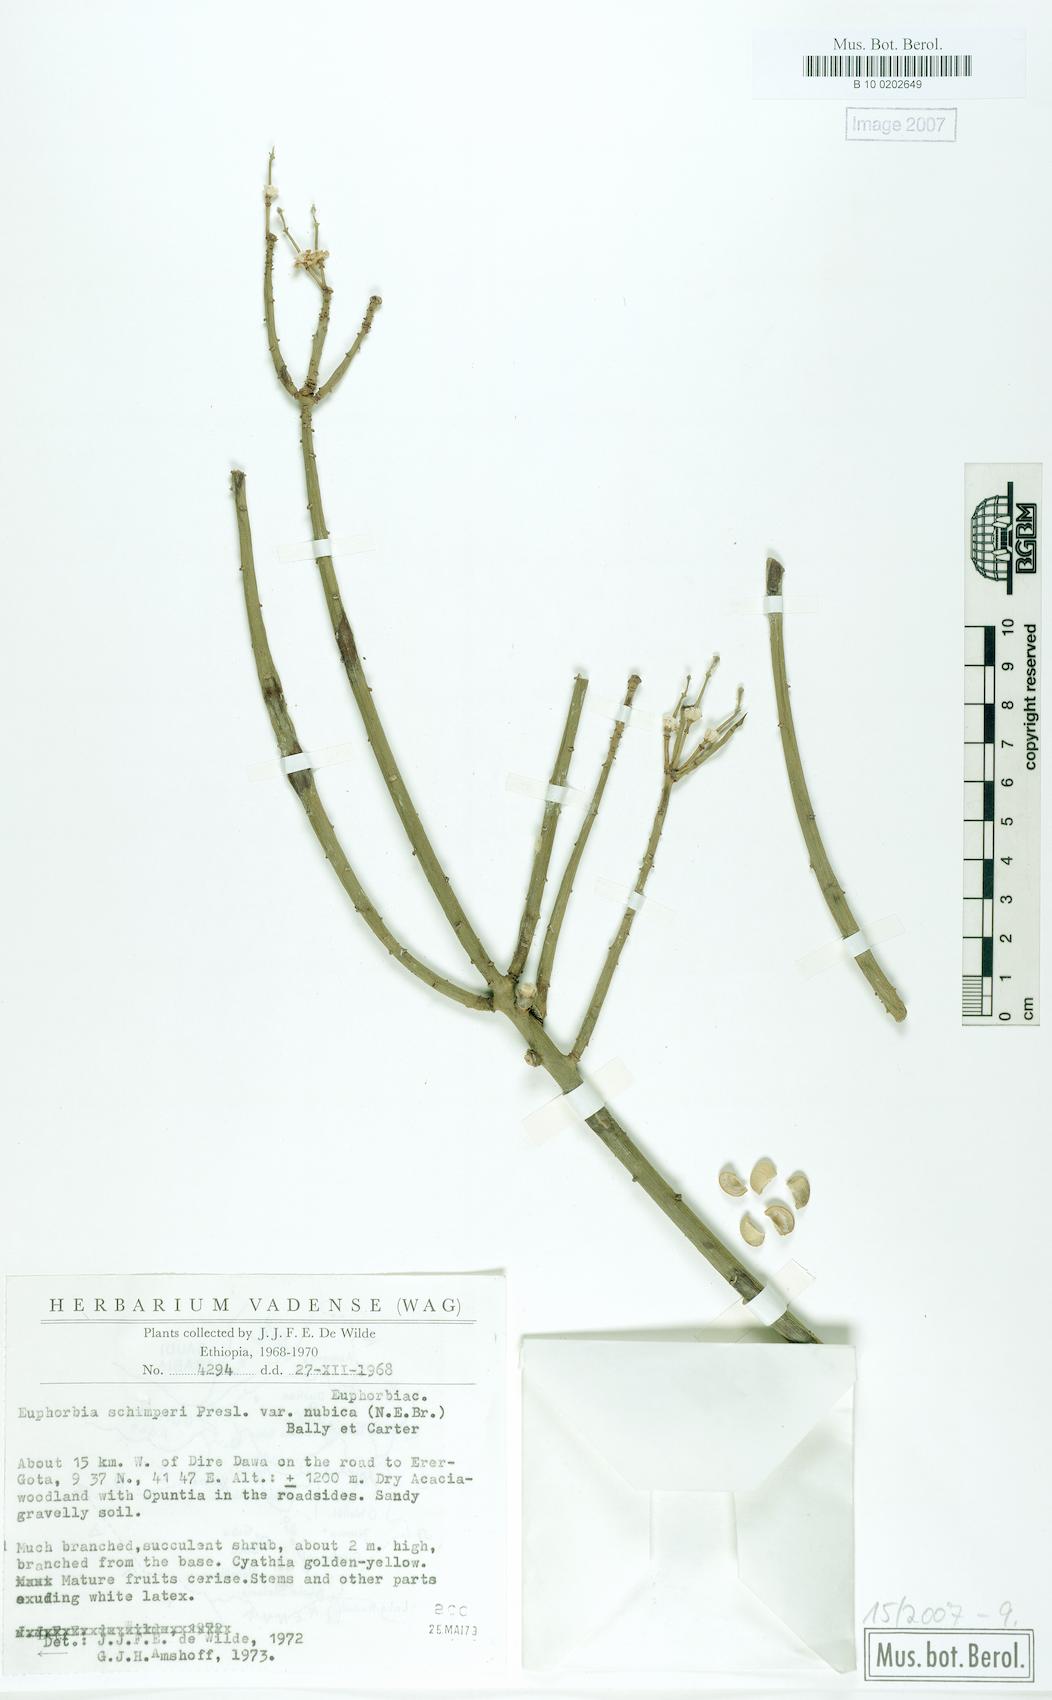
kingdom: Plantae
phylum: Tracheophyta
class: Magnoliopsida
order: Malpighiales
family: Euphorbiaceae
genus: Euphorbia
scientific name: Euphorbia schimperi
